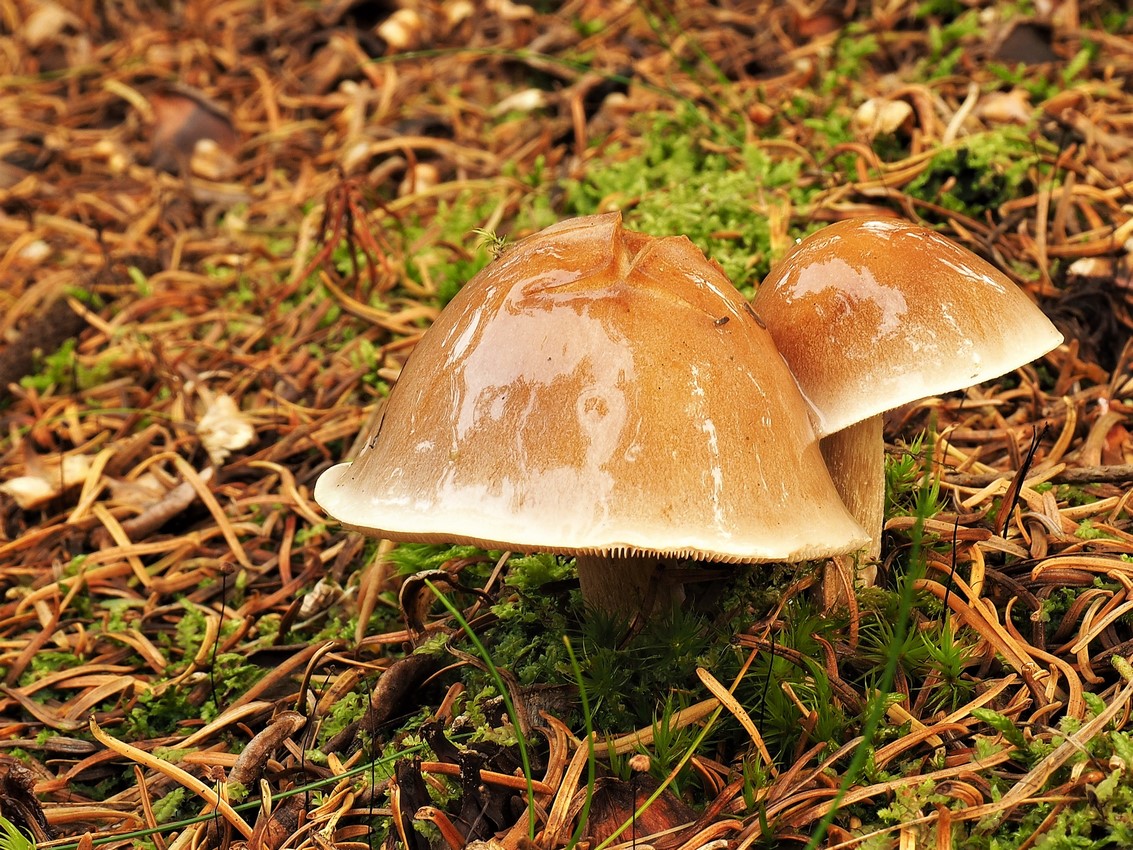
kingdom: Fungi
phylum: Basidiomycota
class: Agaricomycetes
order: Agaricales
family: Hymenogastraceae
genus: Hebeloma
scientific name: Hebeloma
